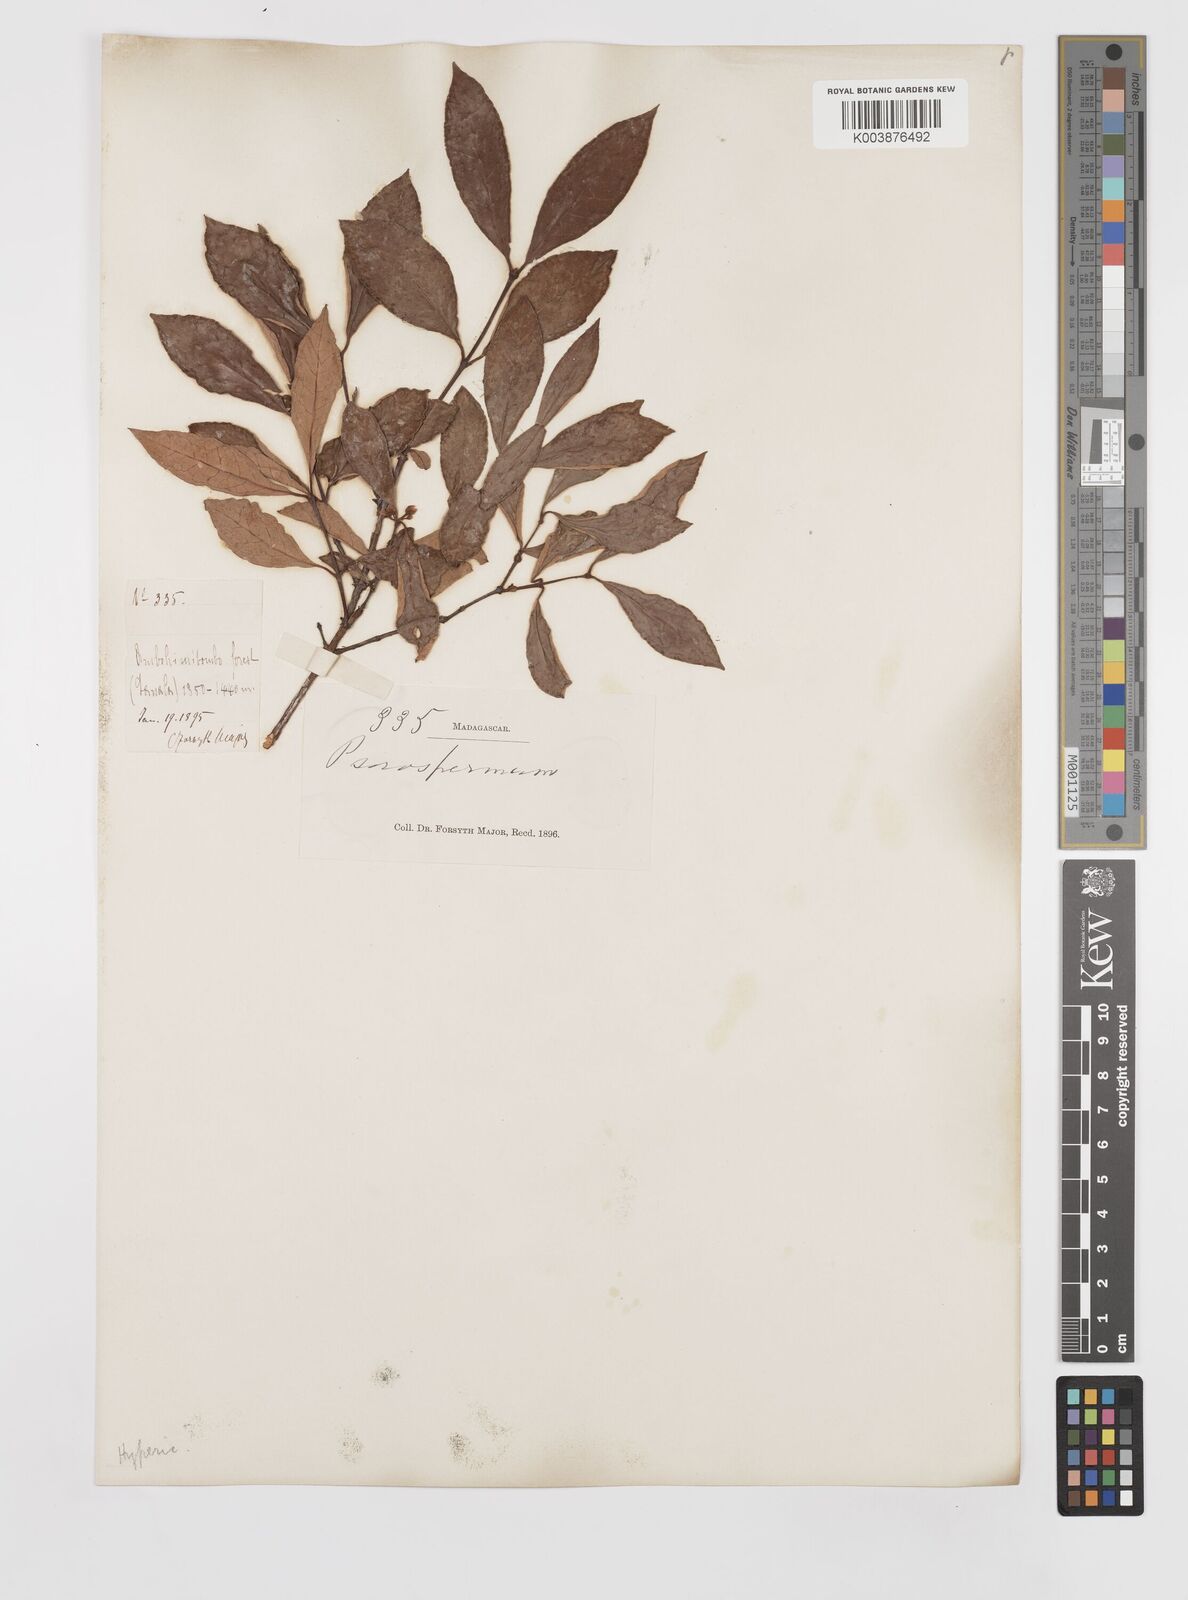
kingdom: Plantae
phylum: Tracheophyta
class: Magnoliopsida
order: Malpighiales
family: Hypericaceae
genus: Psorospermum
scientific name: Psorospermum
